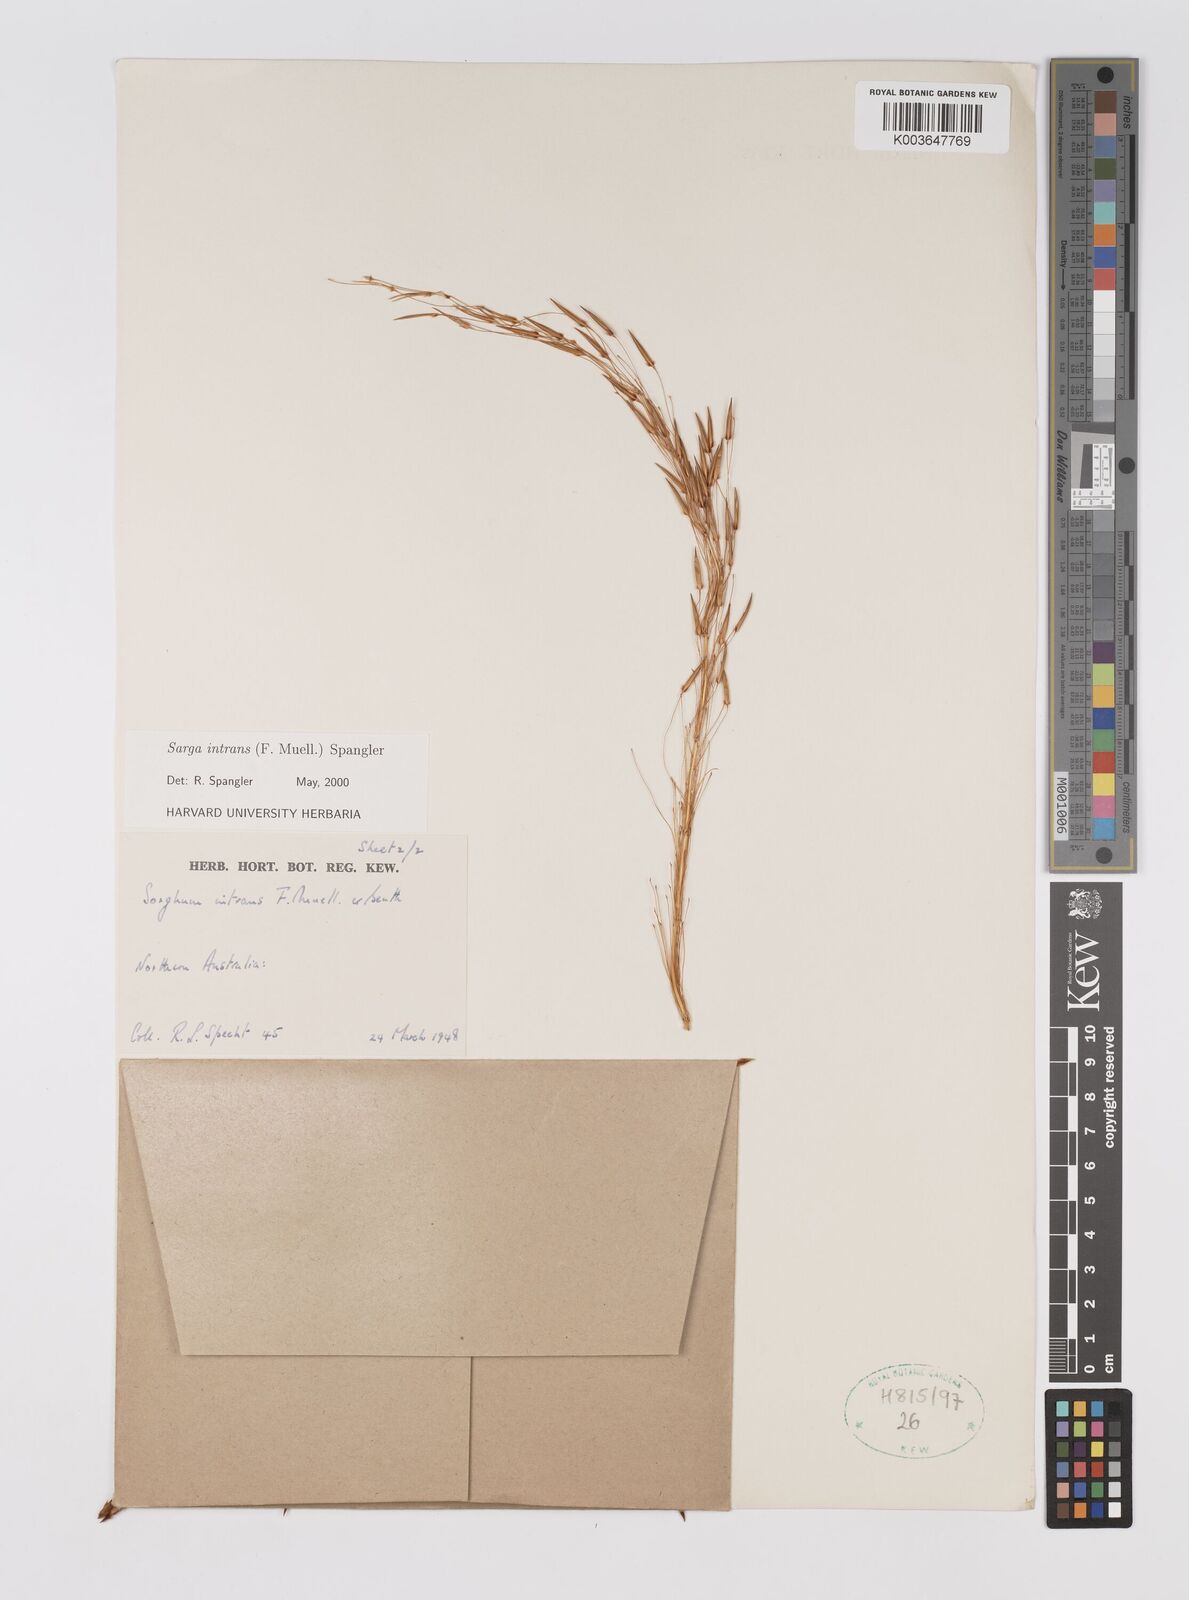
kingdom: Plantae
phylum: Tracheophyta
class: Liliopsida
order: Poales
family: Poaceae
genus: Sarga
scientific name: Sarga intrans
